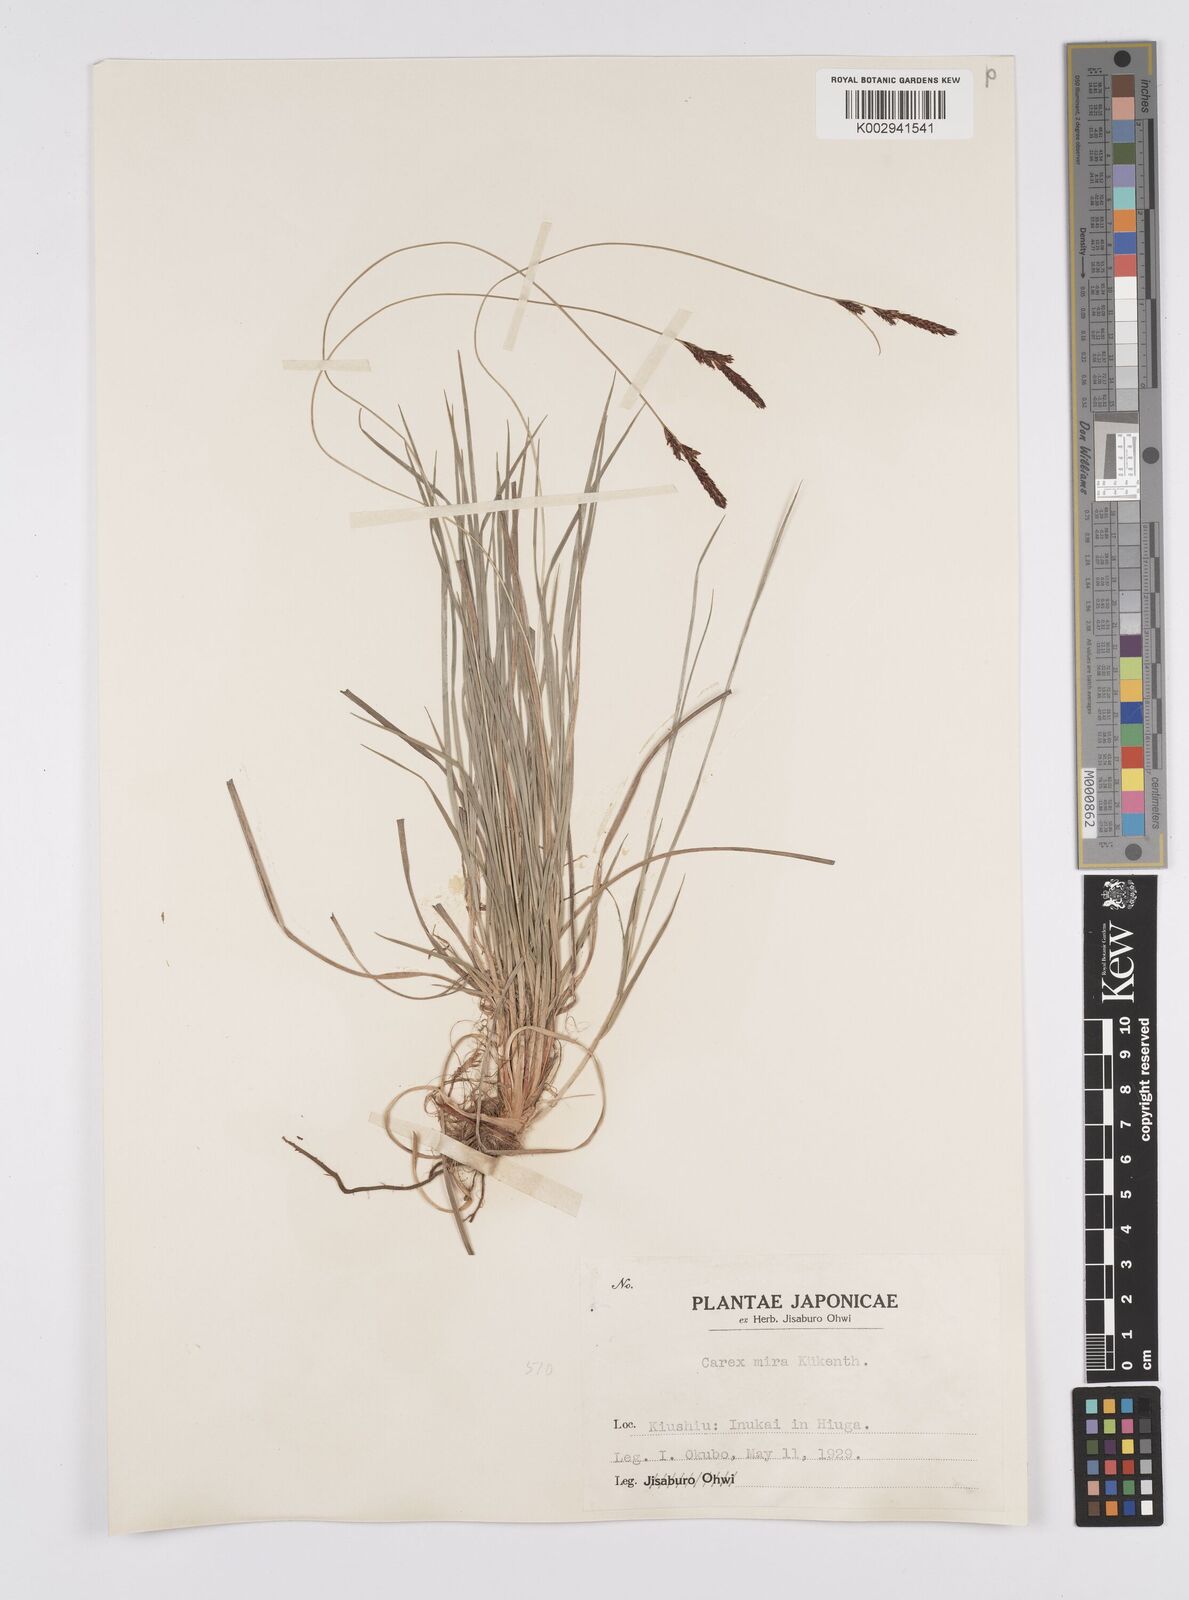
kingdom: Plantae
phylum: Tracheophyta
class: Liliopsida
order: Poales
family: Cyperaceae
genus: Carex
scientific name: Carex mira
